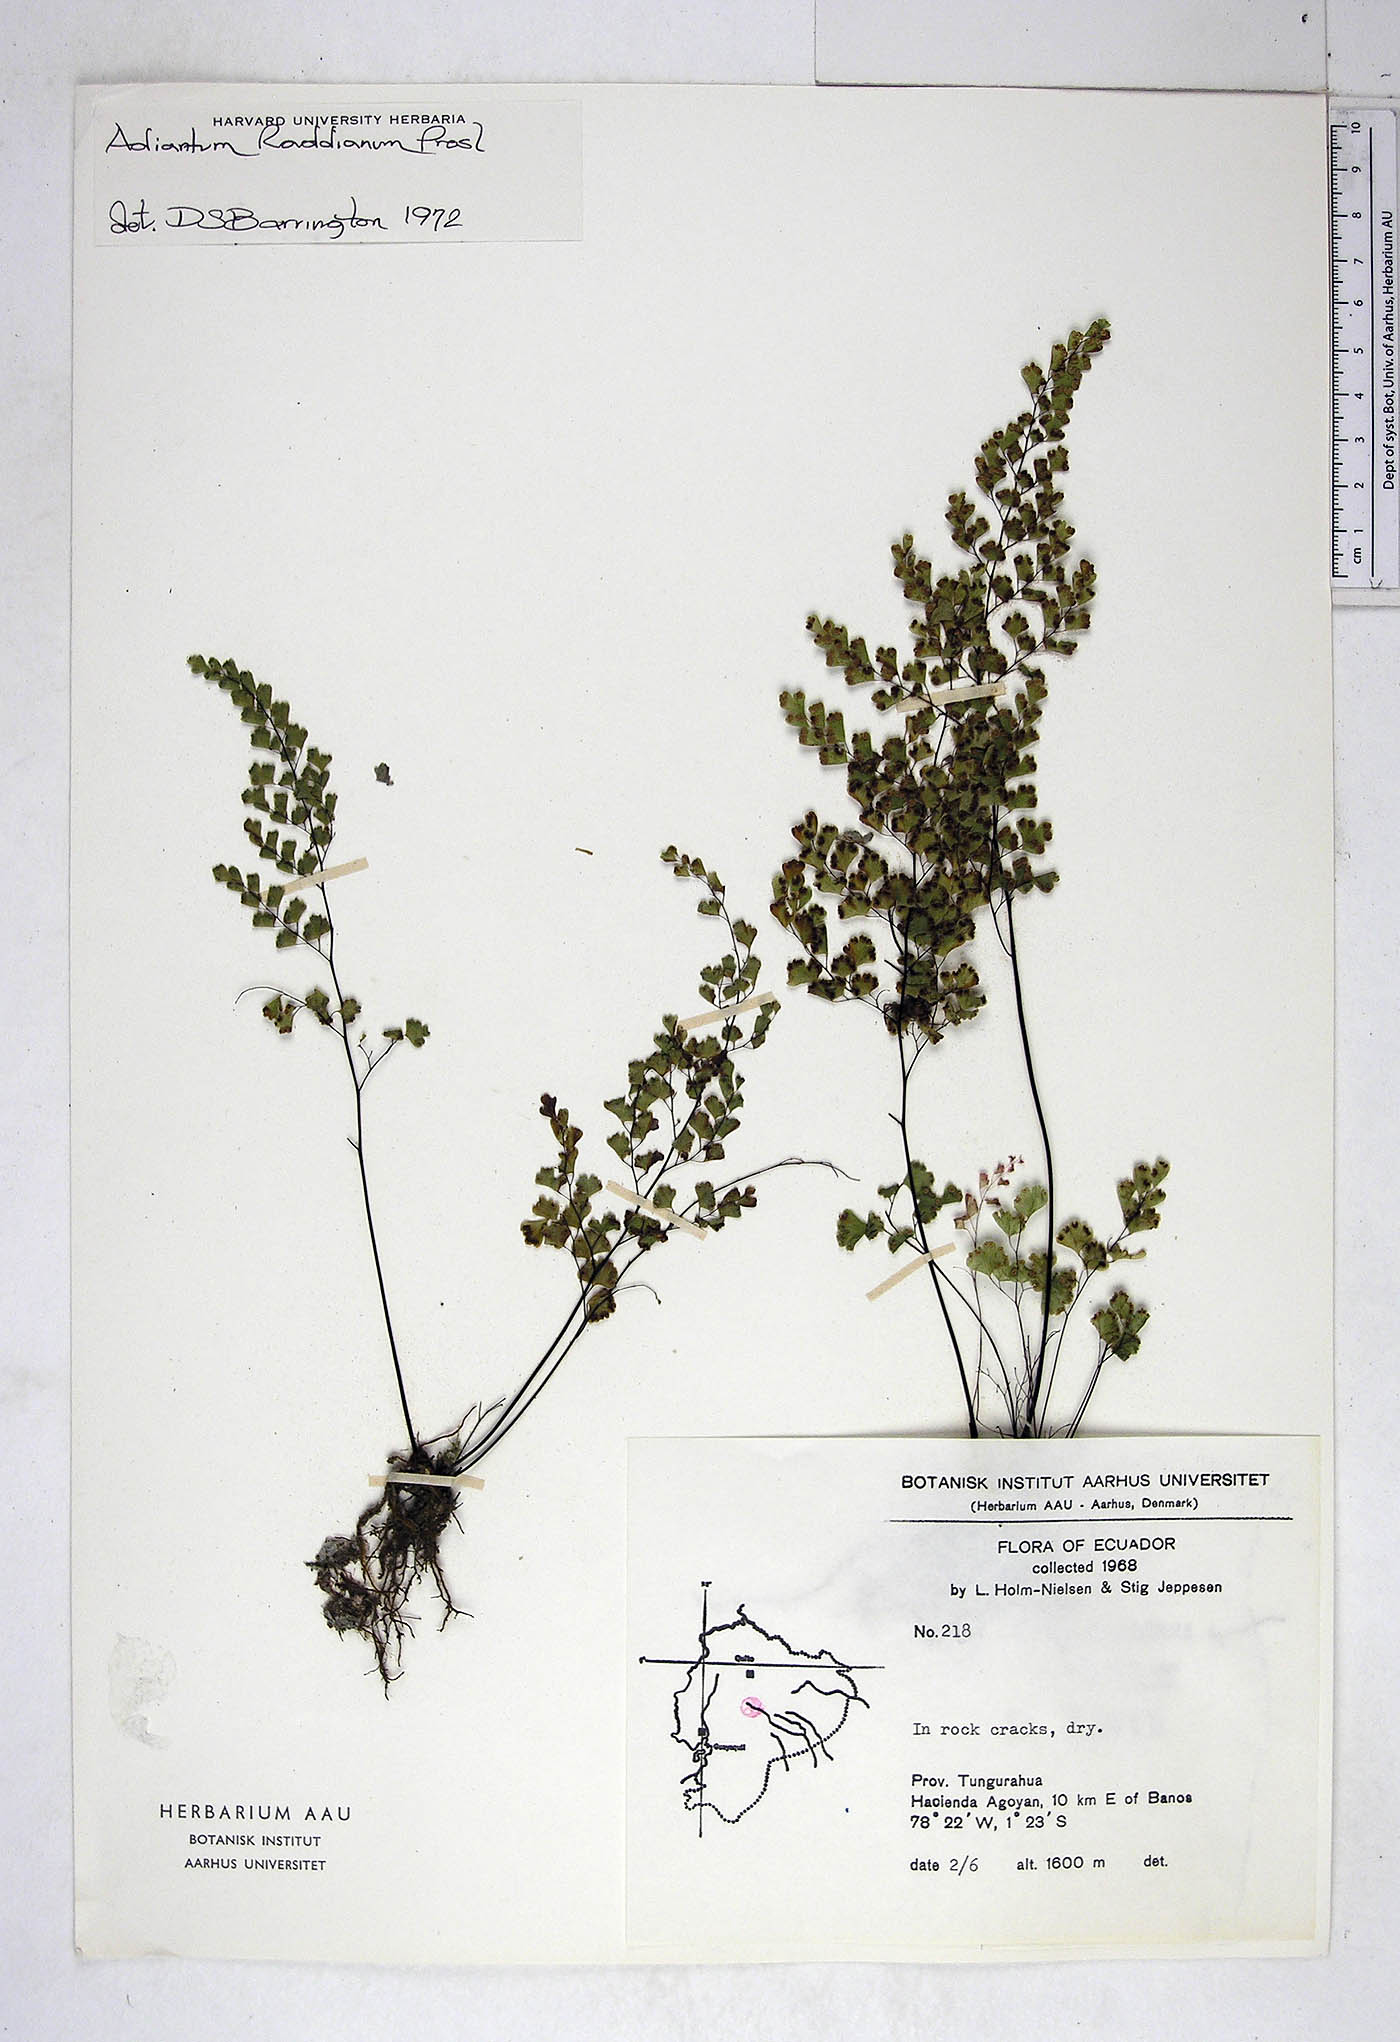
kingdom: Plantae
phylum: Tracheophyta
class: Polypodiopsida
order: Polypodiales
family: Pteridaceae
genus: Adiantum
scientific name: Adiantum raddianum
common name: Delta maidenhair fern
